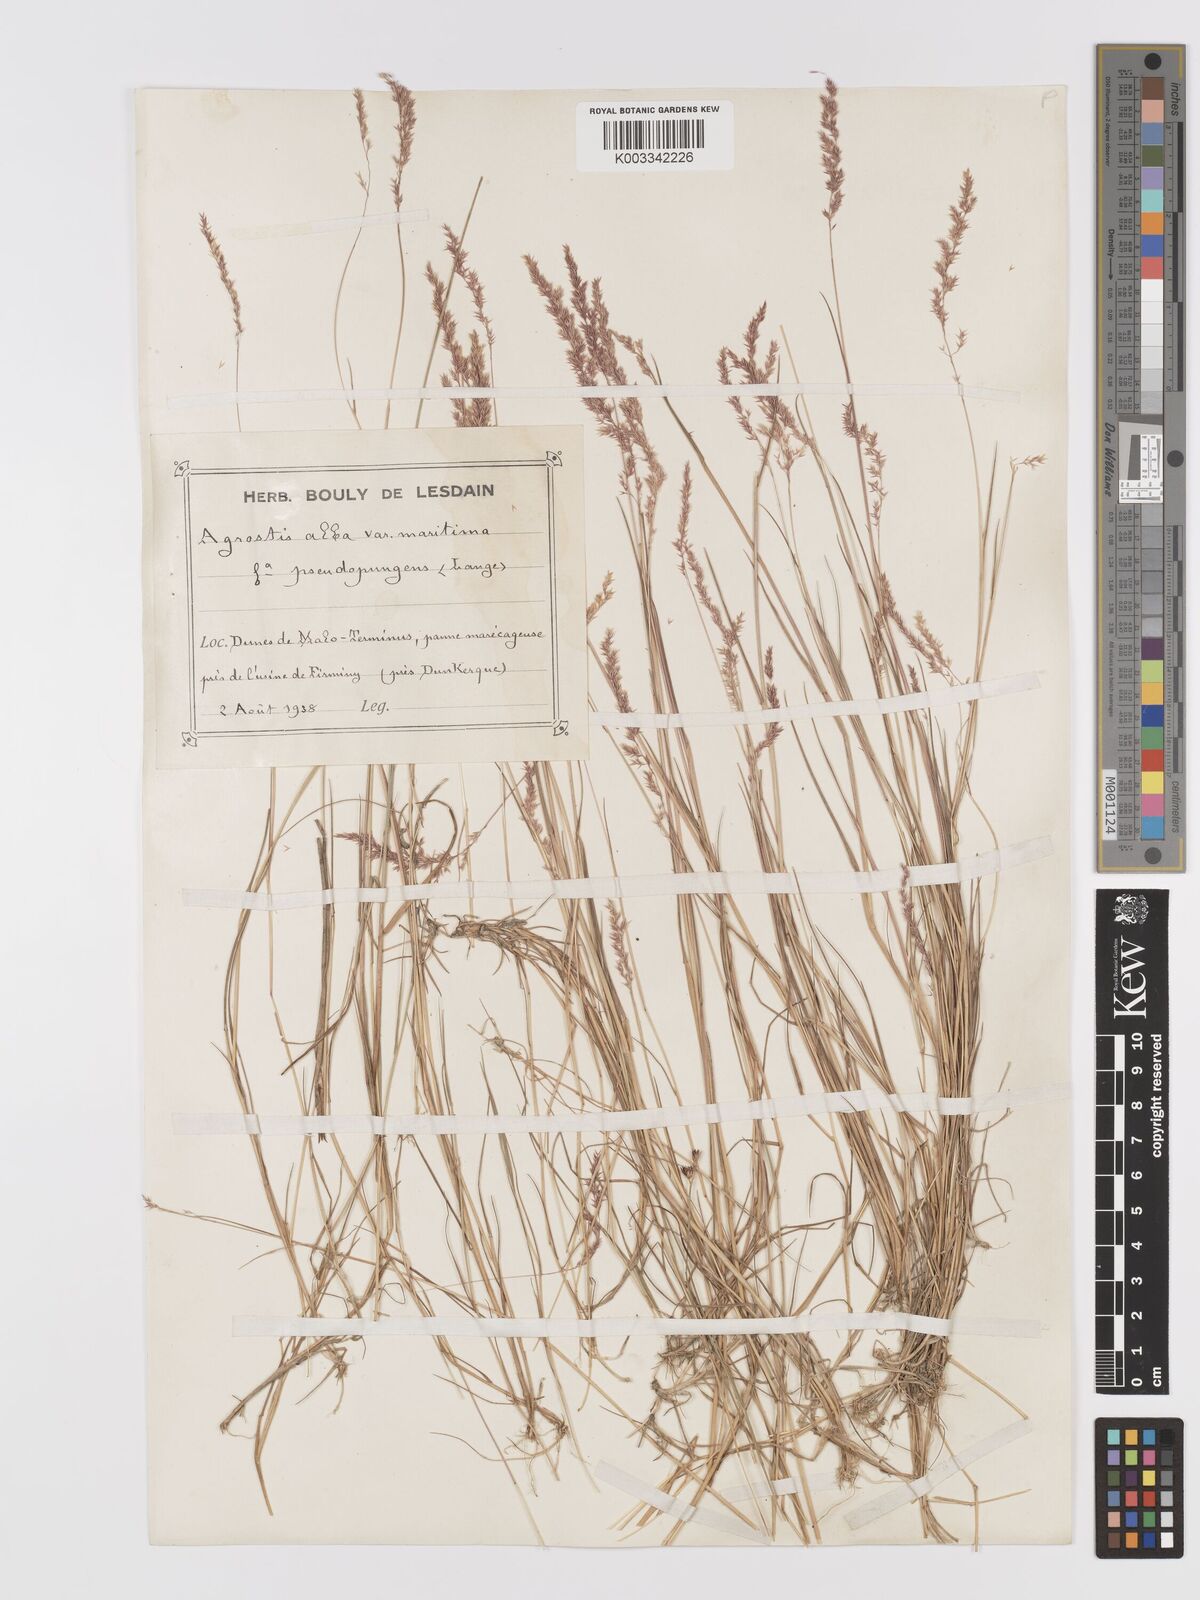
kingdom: Plantae
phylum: Tracheophyta
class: Liliopsida
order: Poales
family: Poaceae
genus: Agrostis
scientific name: Agrostis stolonifera
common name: Creeping bentgrass
